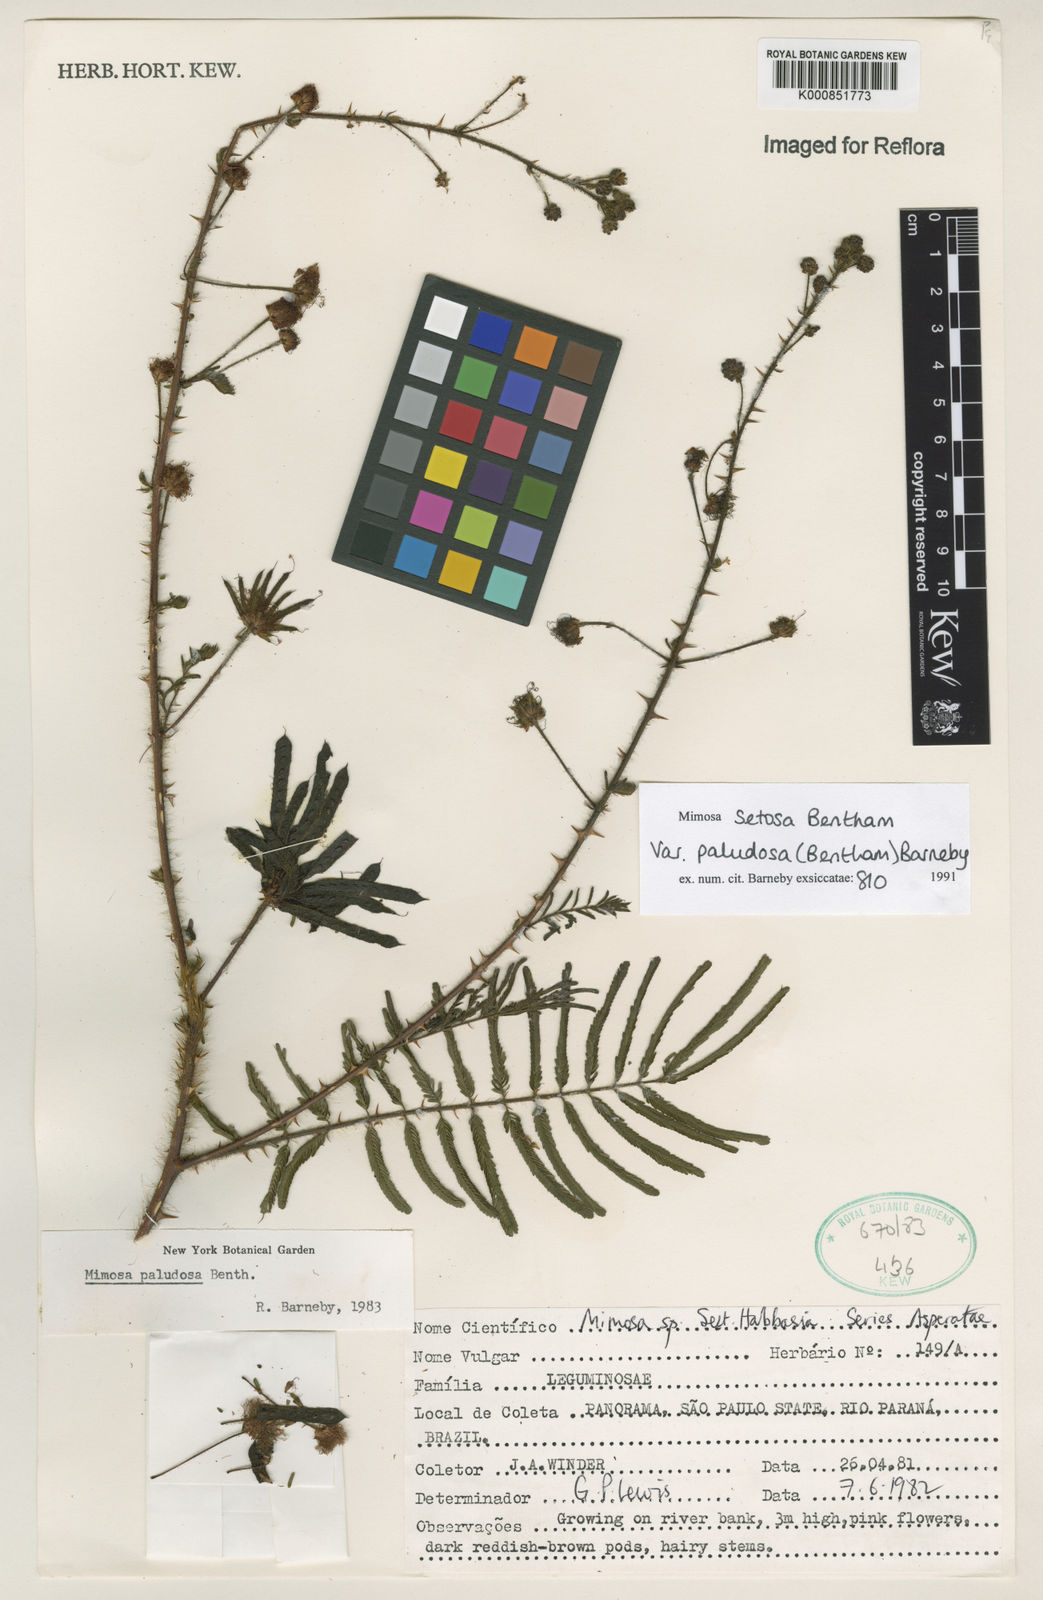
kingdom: Plantae
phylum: Tracheophyta
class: Magnoliopsida
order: Fabales
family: Fabaceae
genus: Mimosa
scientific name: Mimosa paludosa
